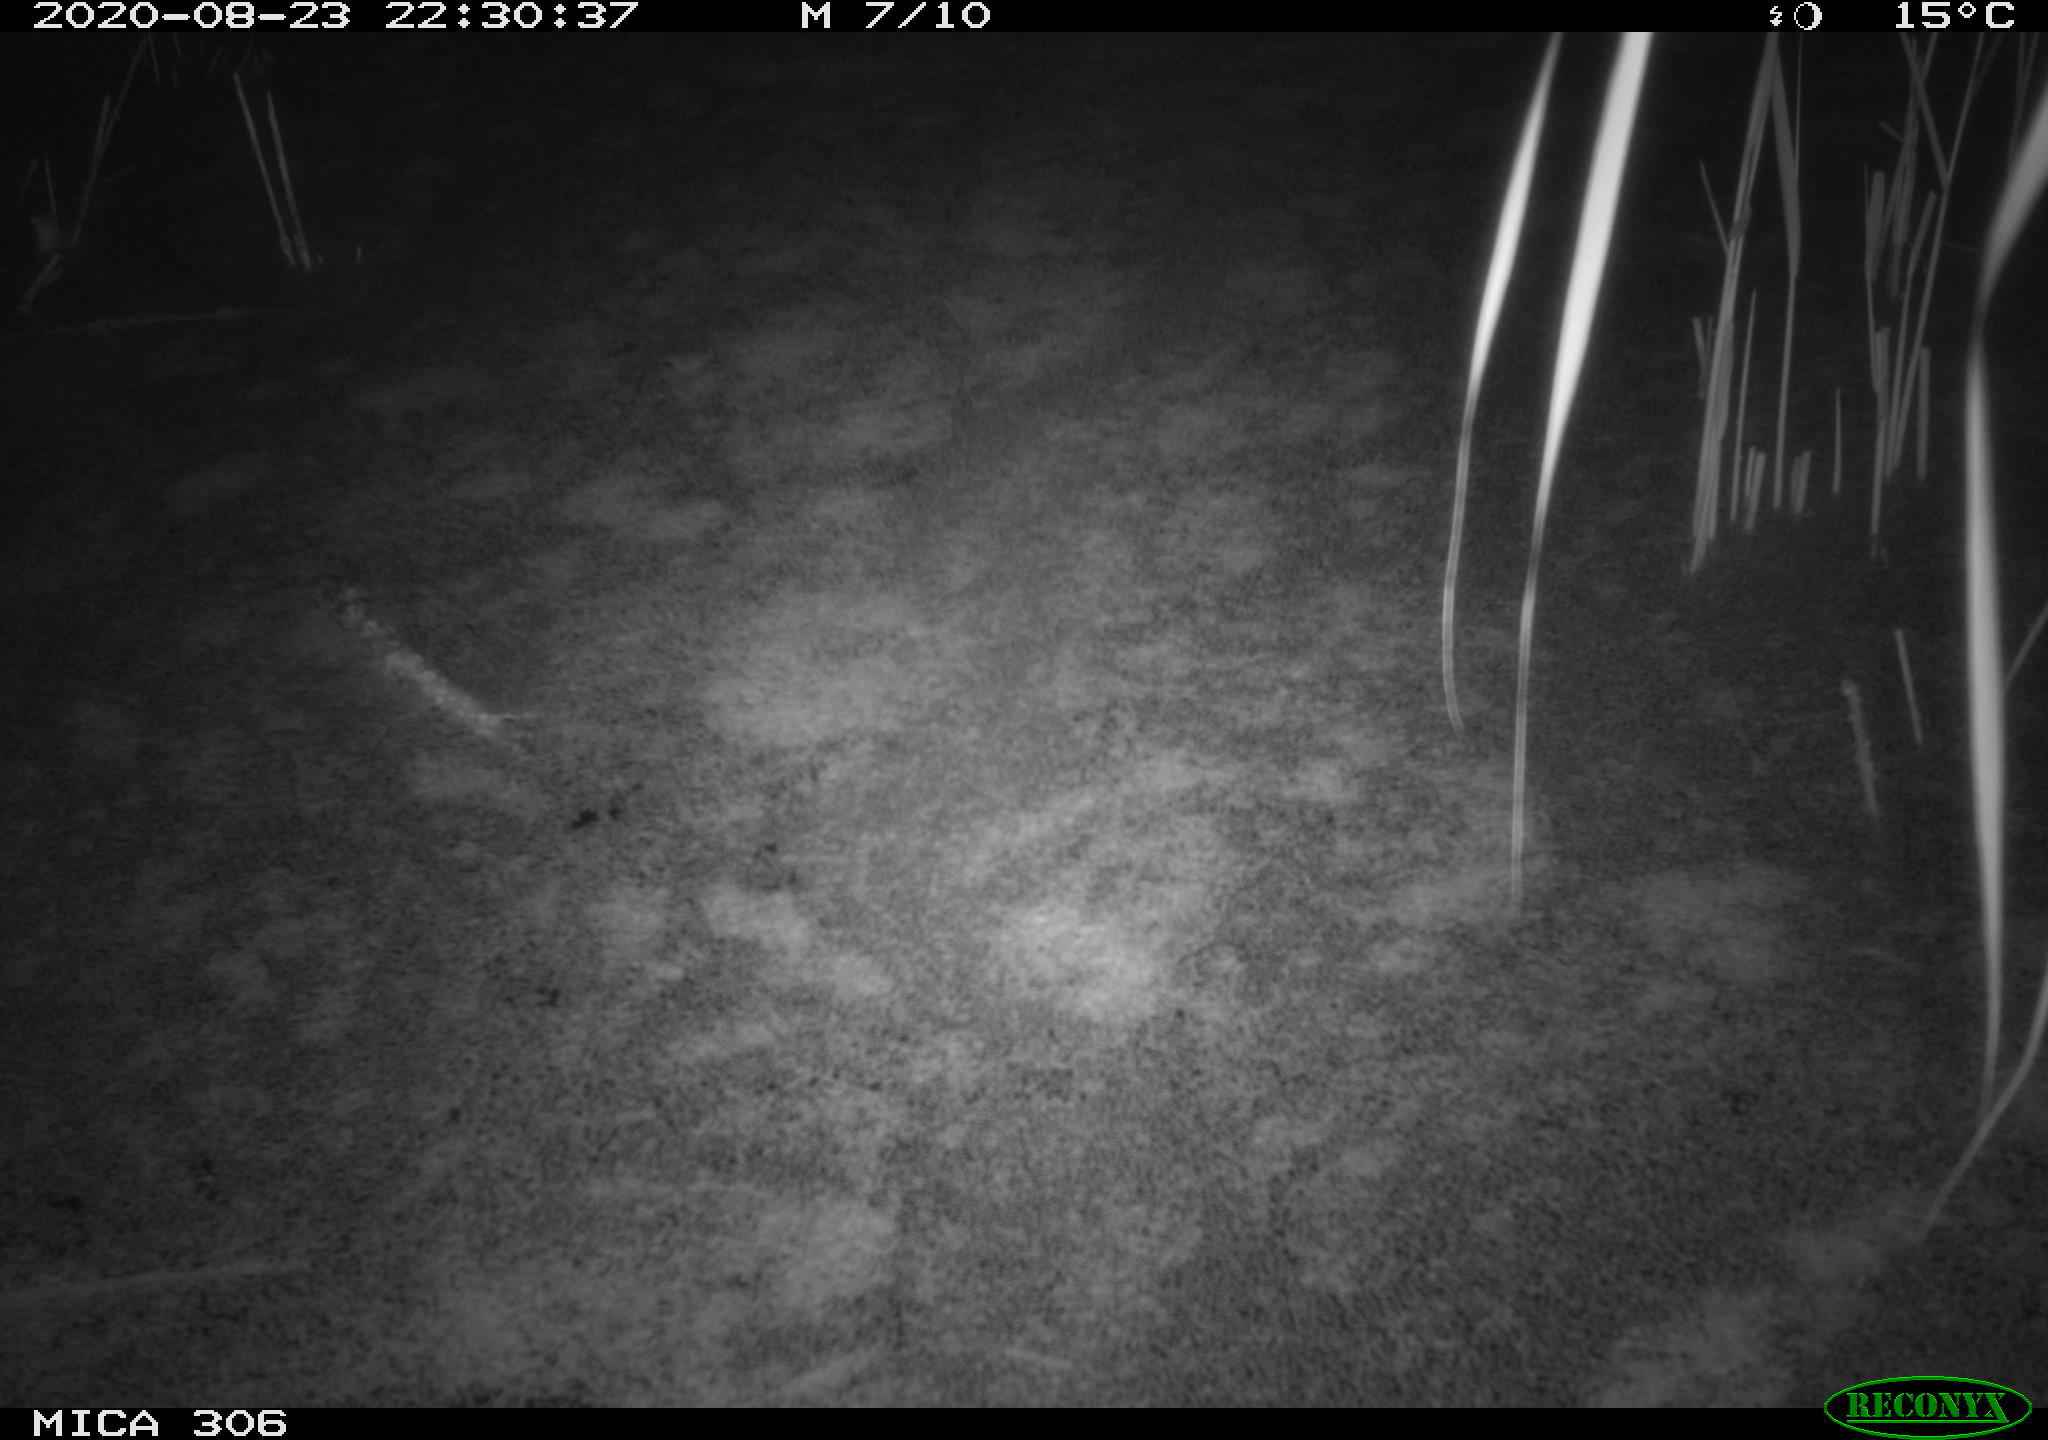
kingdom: Animalia
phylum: Chordata
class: Mammalia
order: Rodentia
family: Muridae
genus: Rattus
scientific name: Rattus norvegicus
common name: Brown rat
